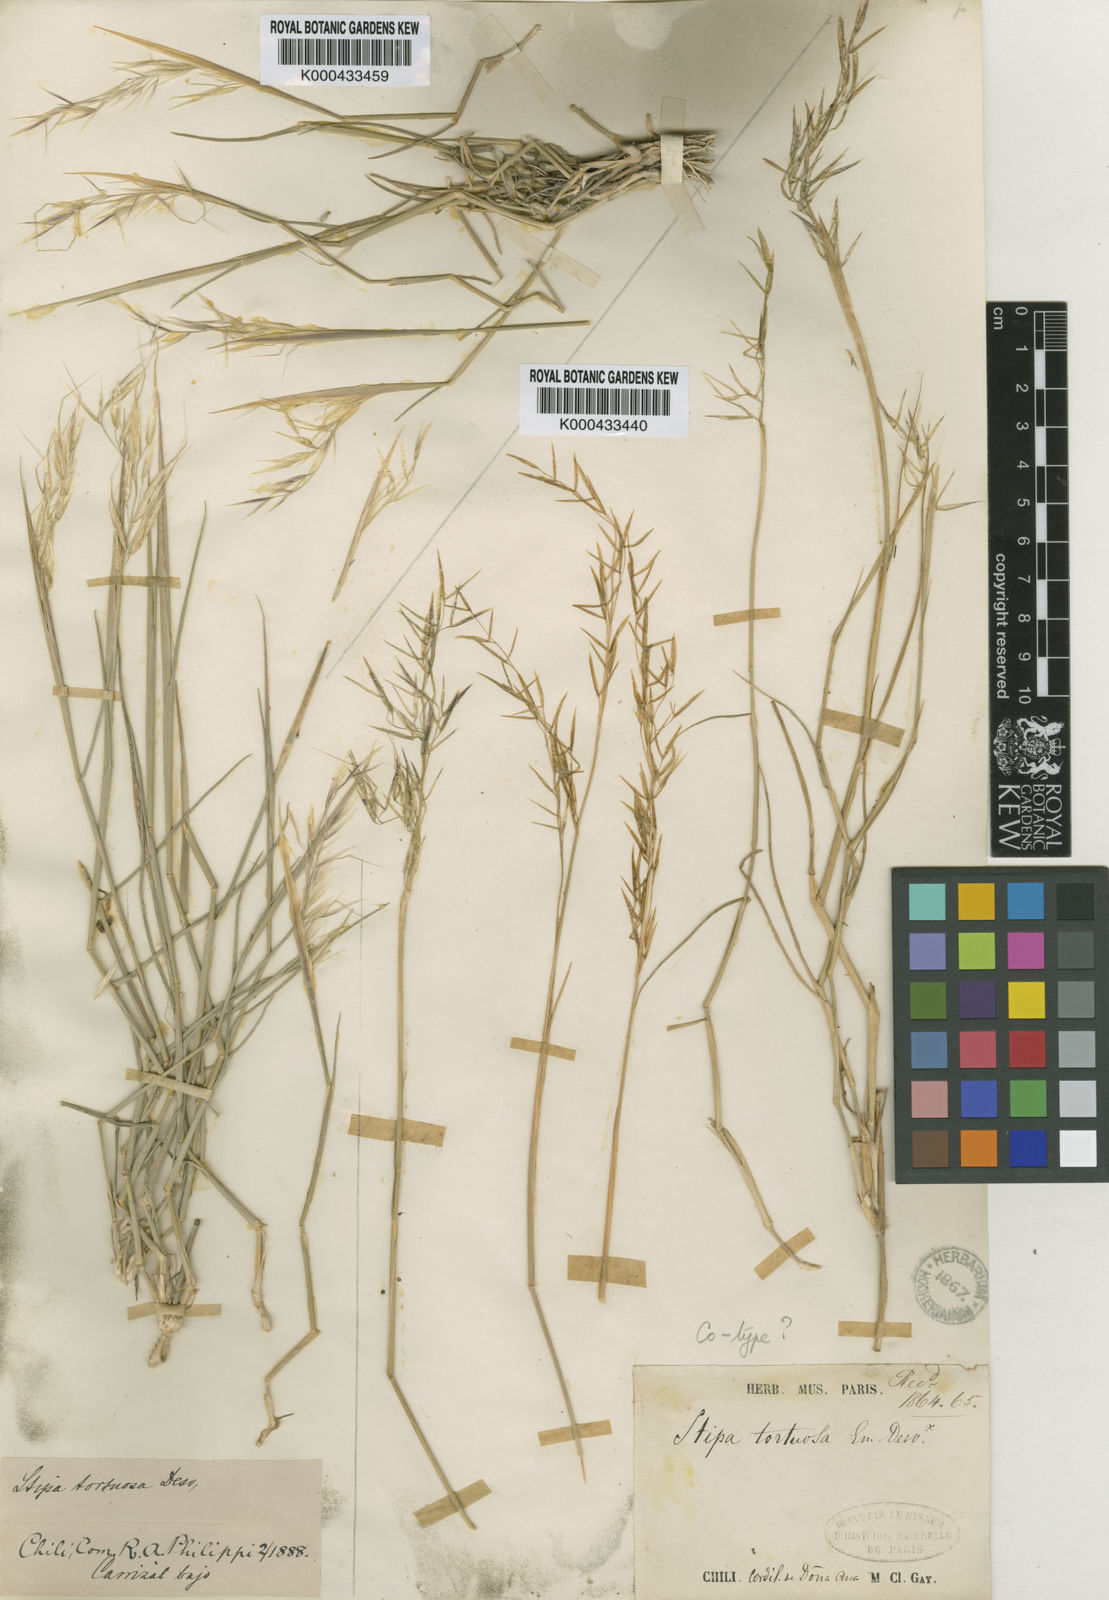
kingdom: Plantae
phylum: Tracheophyta
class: Liliopsida
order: Poales
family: Poaceae
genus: Stipa
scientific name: Stipa
